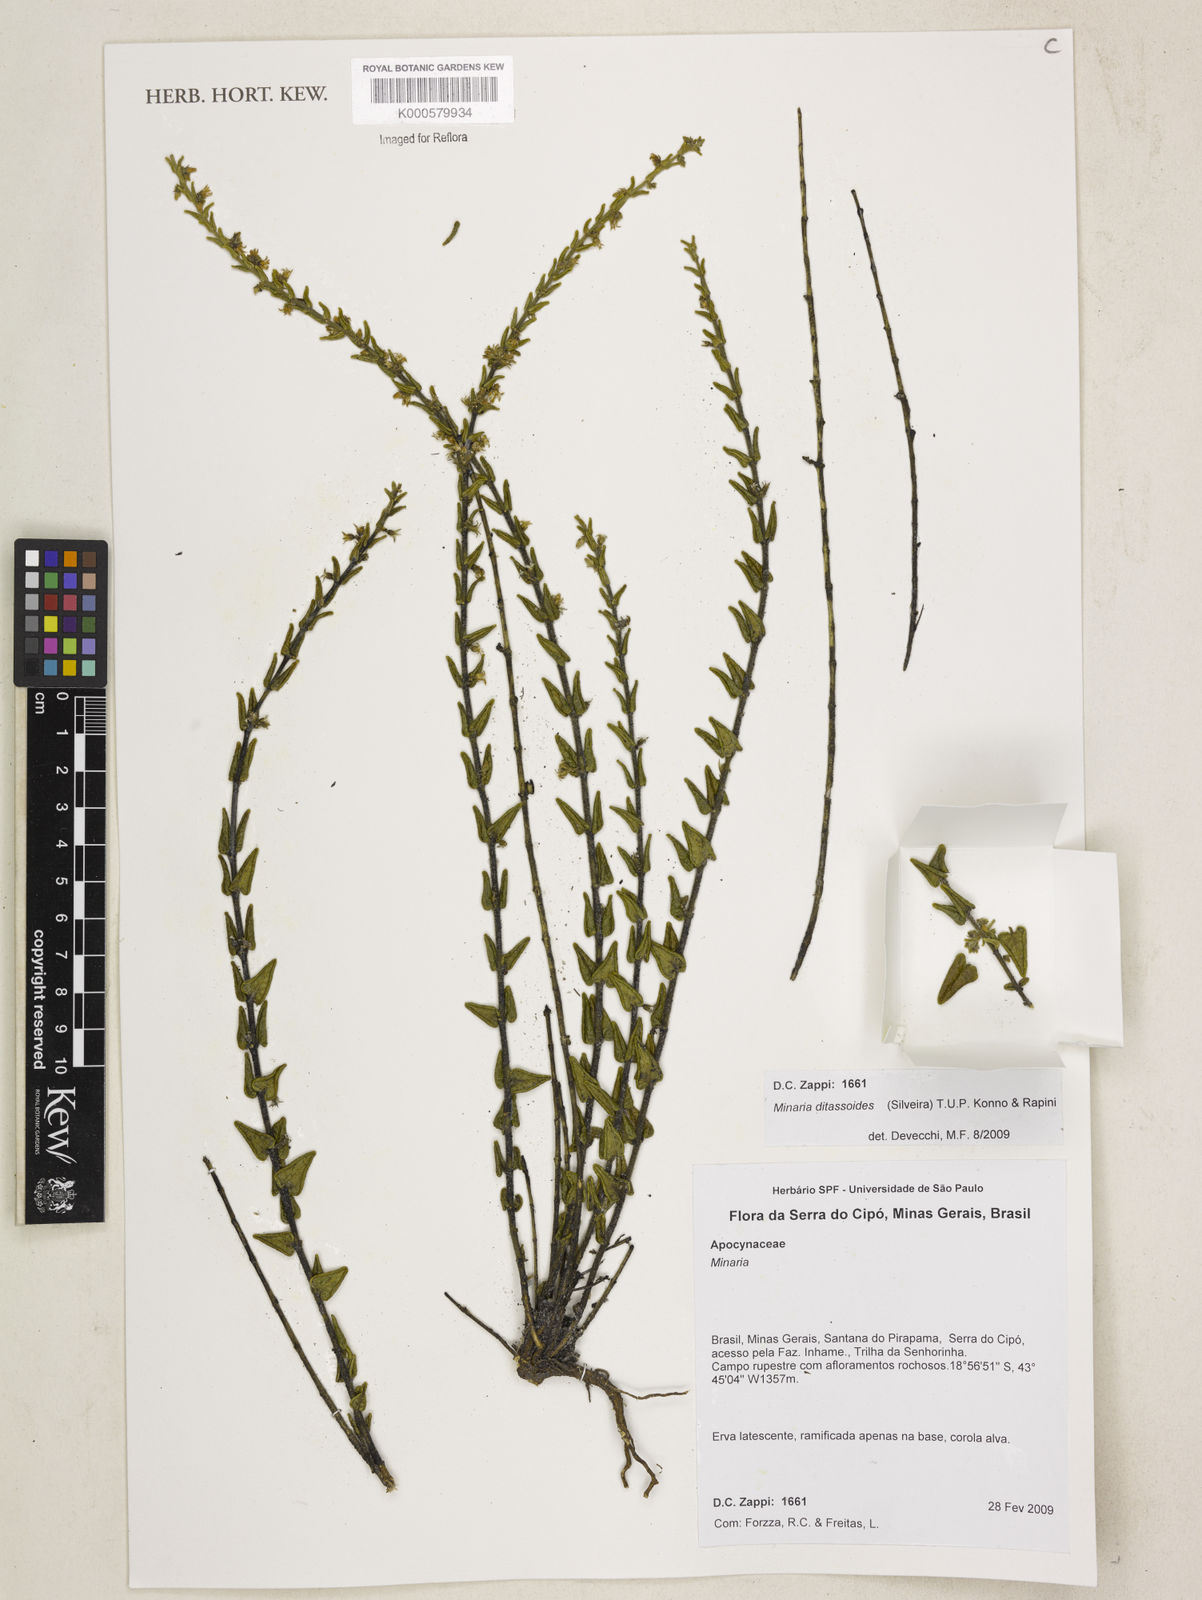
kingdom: Plantae
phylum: Tracheophyta
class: Magnoliopsida
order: Gentianales
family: Apocynaceae
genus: Minaria
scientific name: Minaria ditassoides
